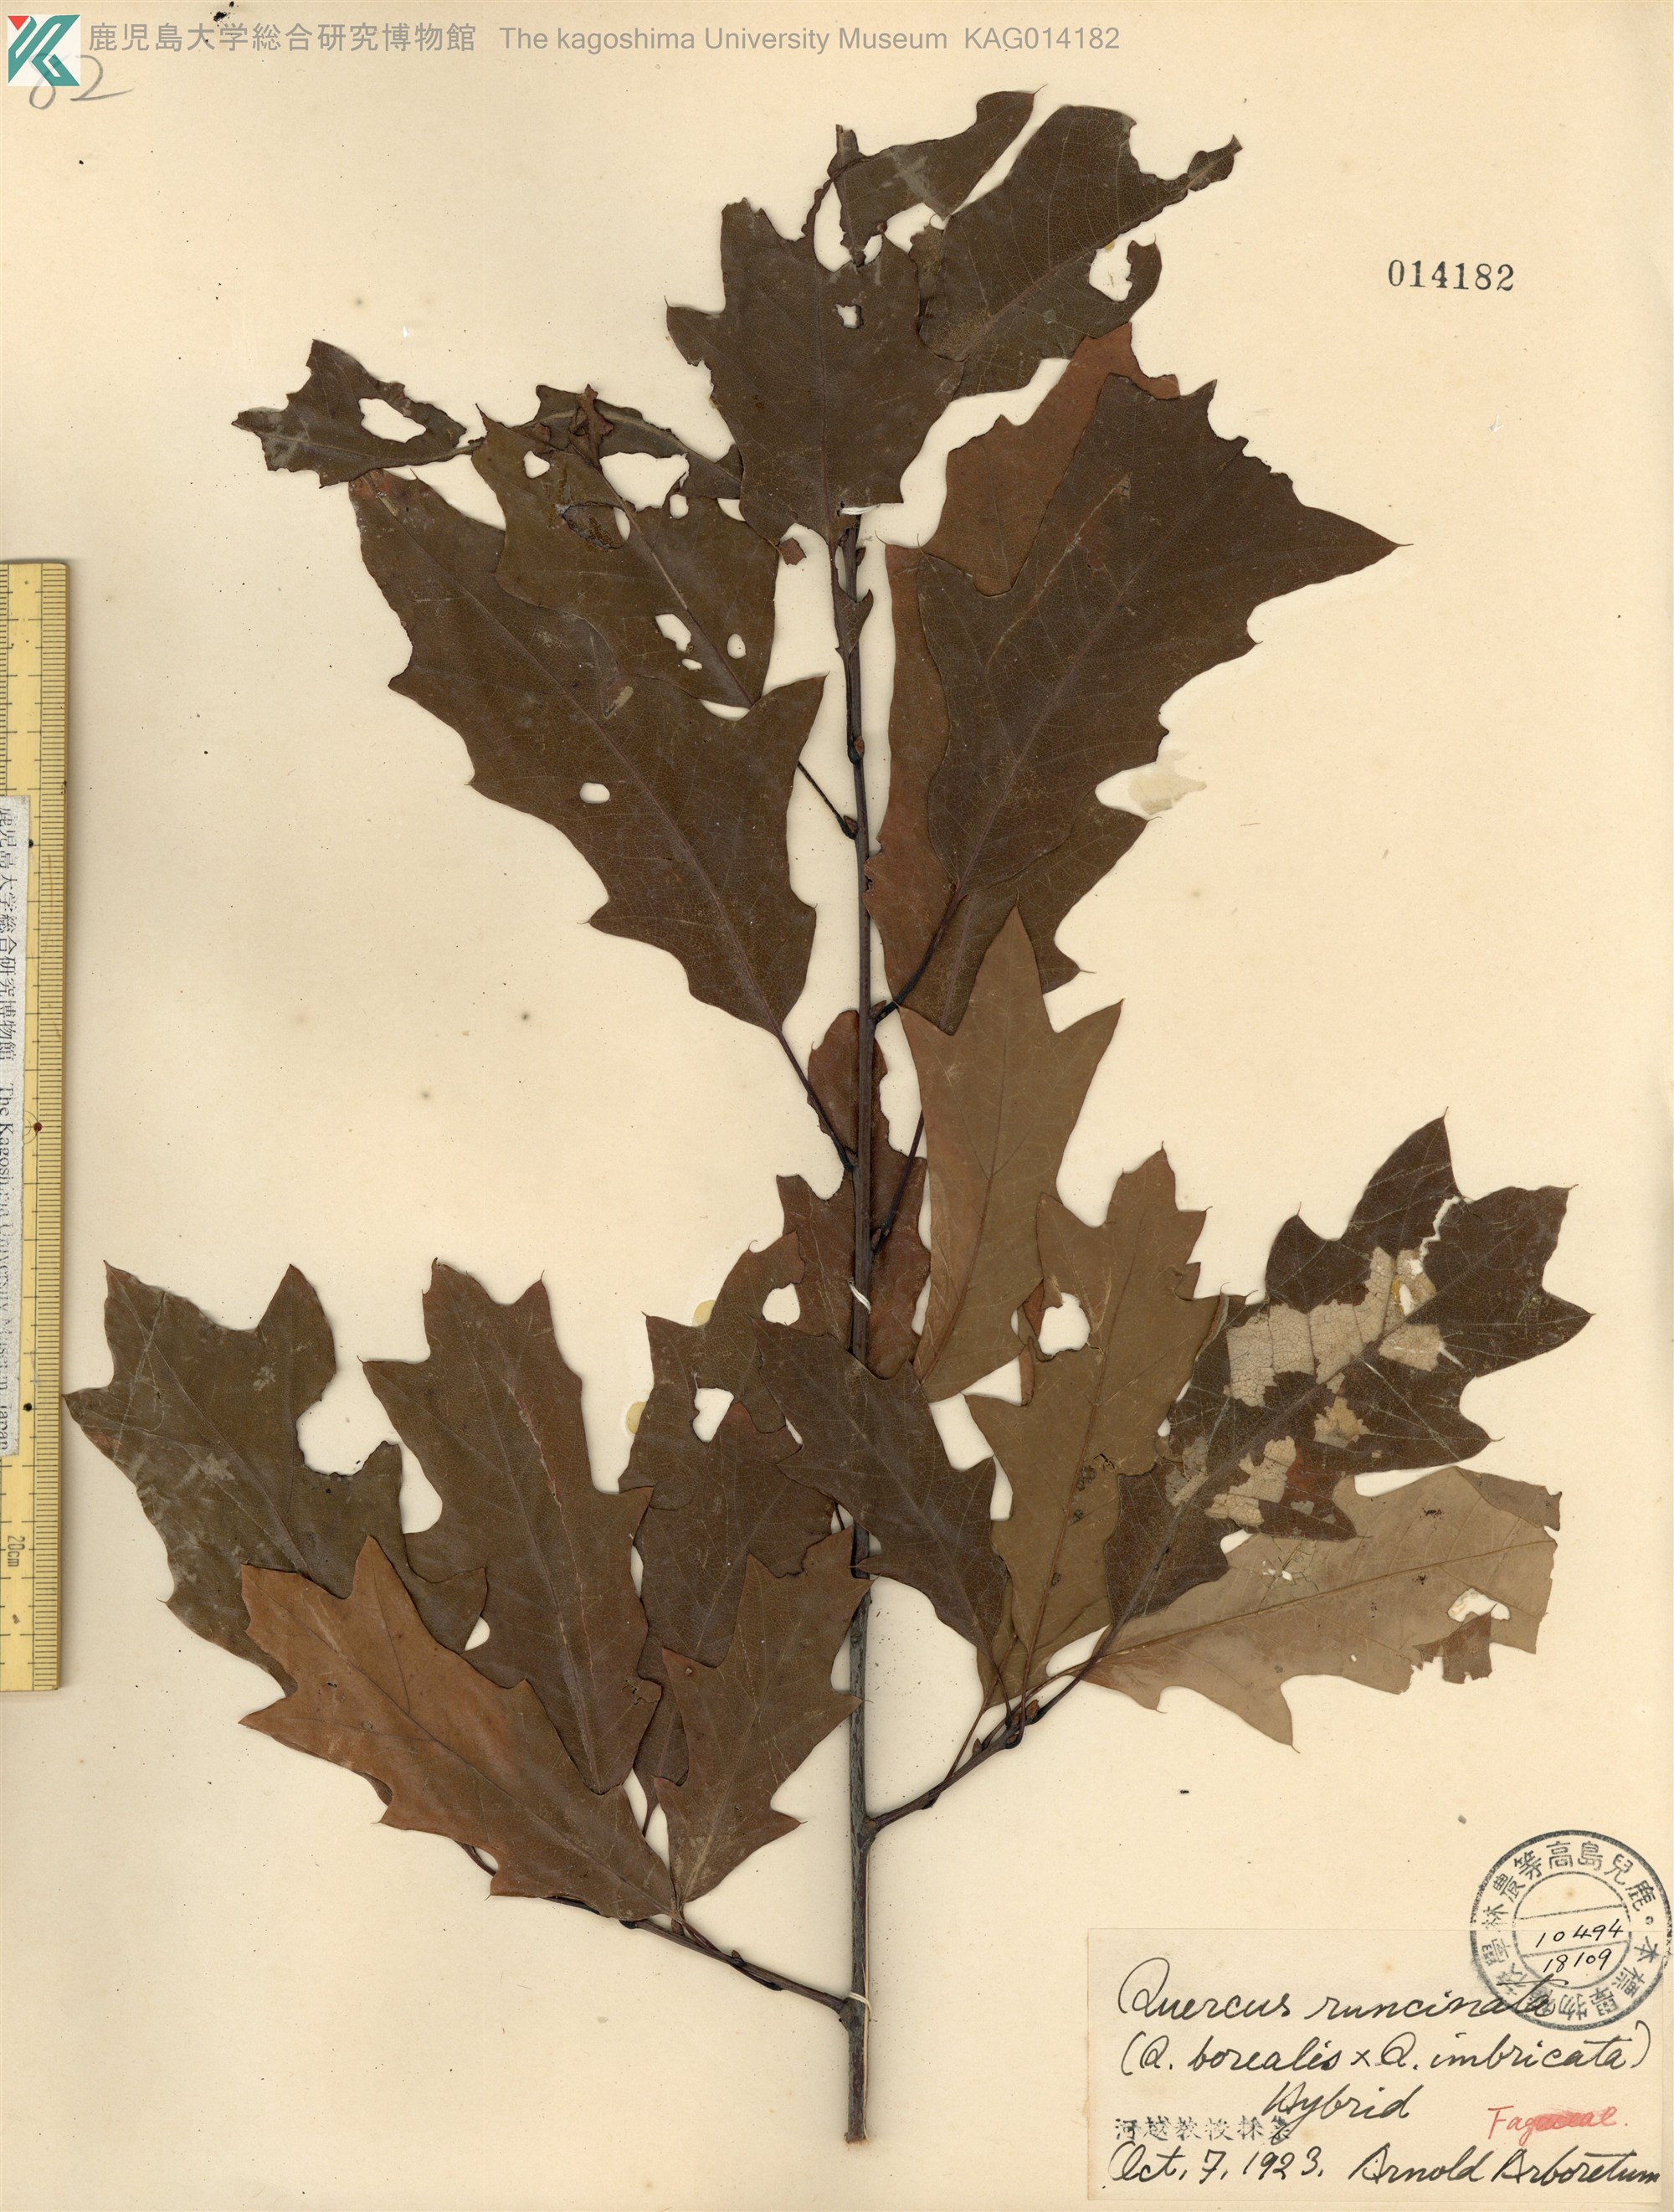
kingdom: Plantae
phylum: Tracheophyta
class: Magnoliopsida
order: Fagales
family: Fagaceae
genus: Quercus
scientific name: Quercus runcinata
